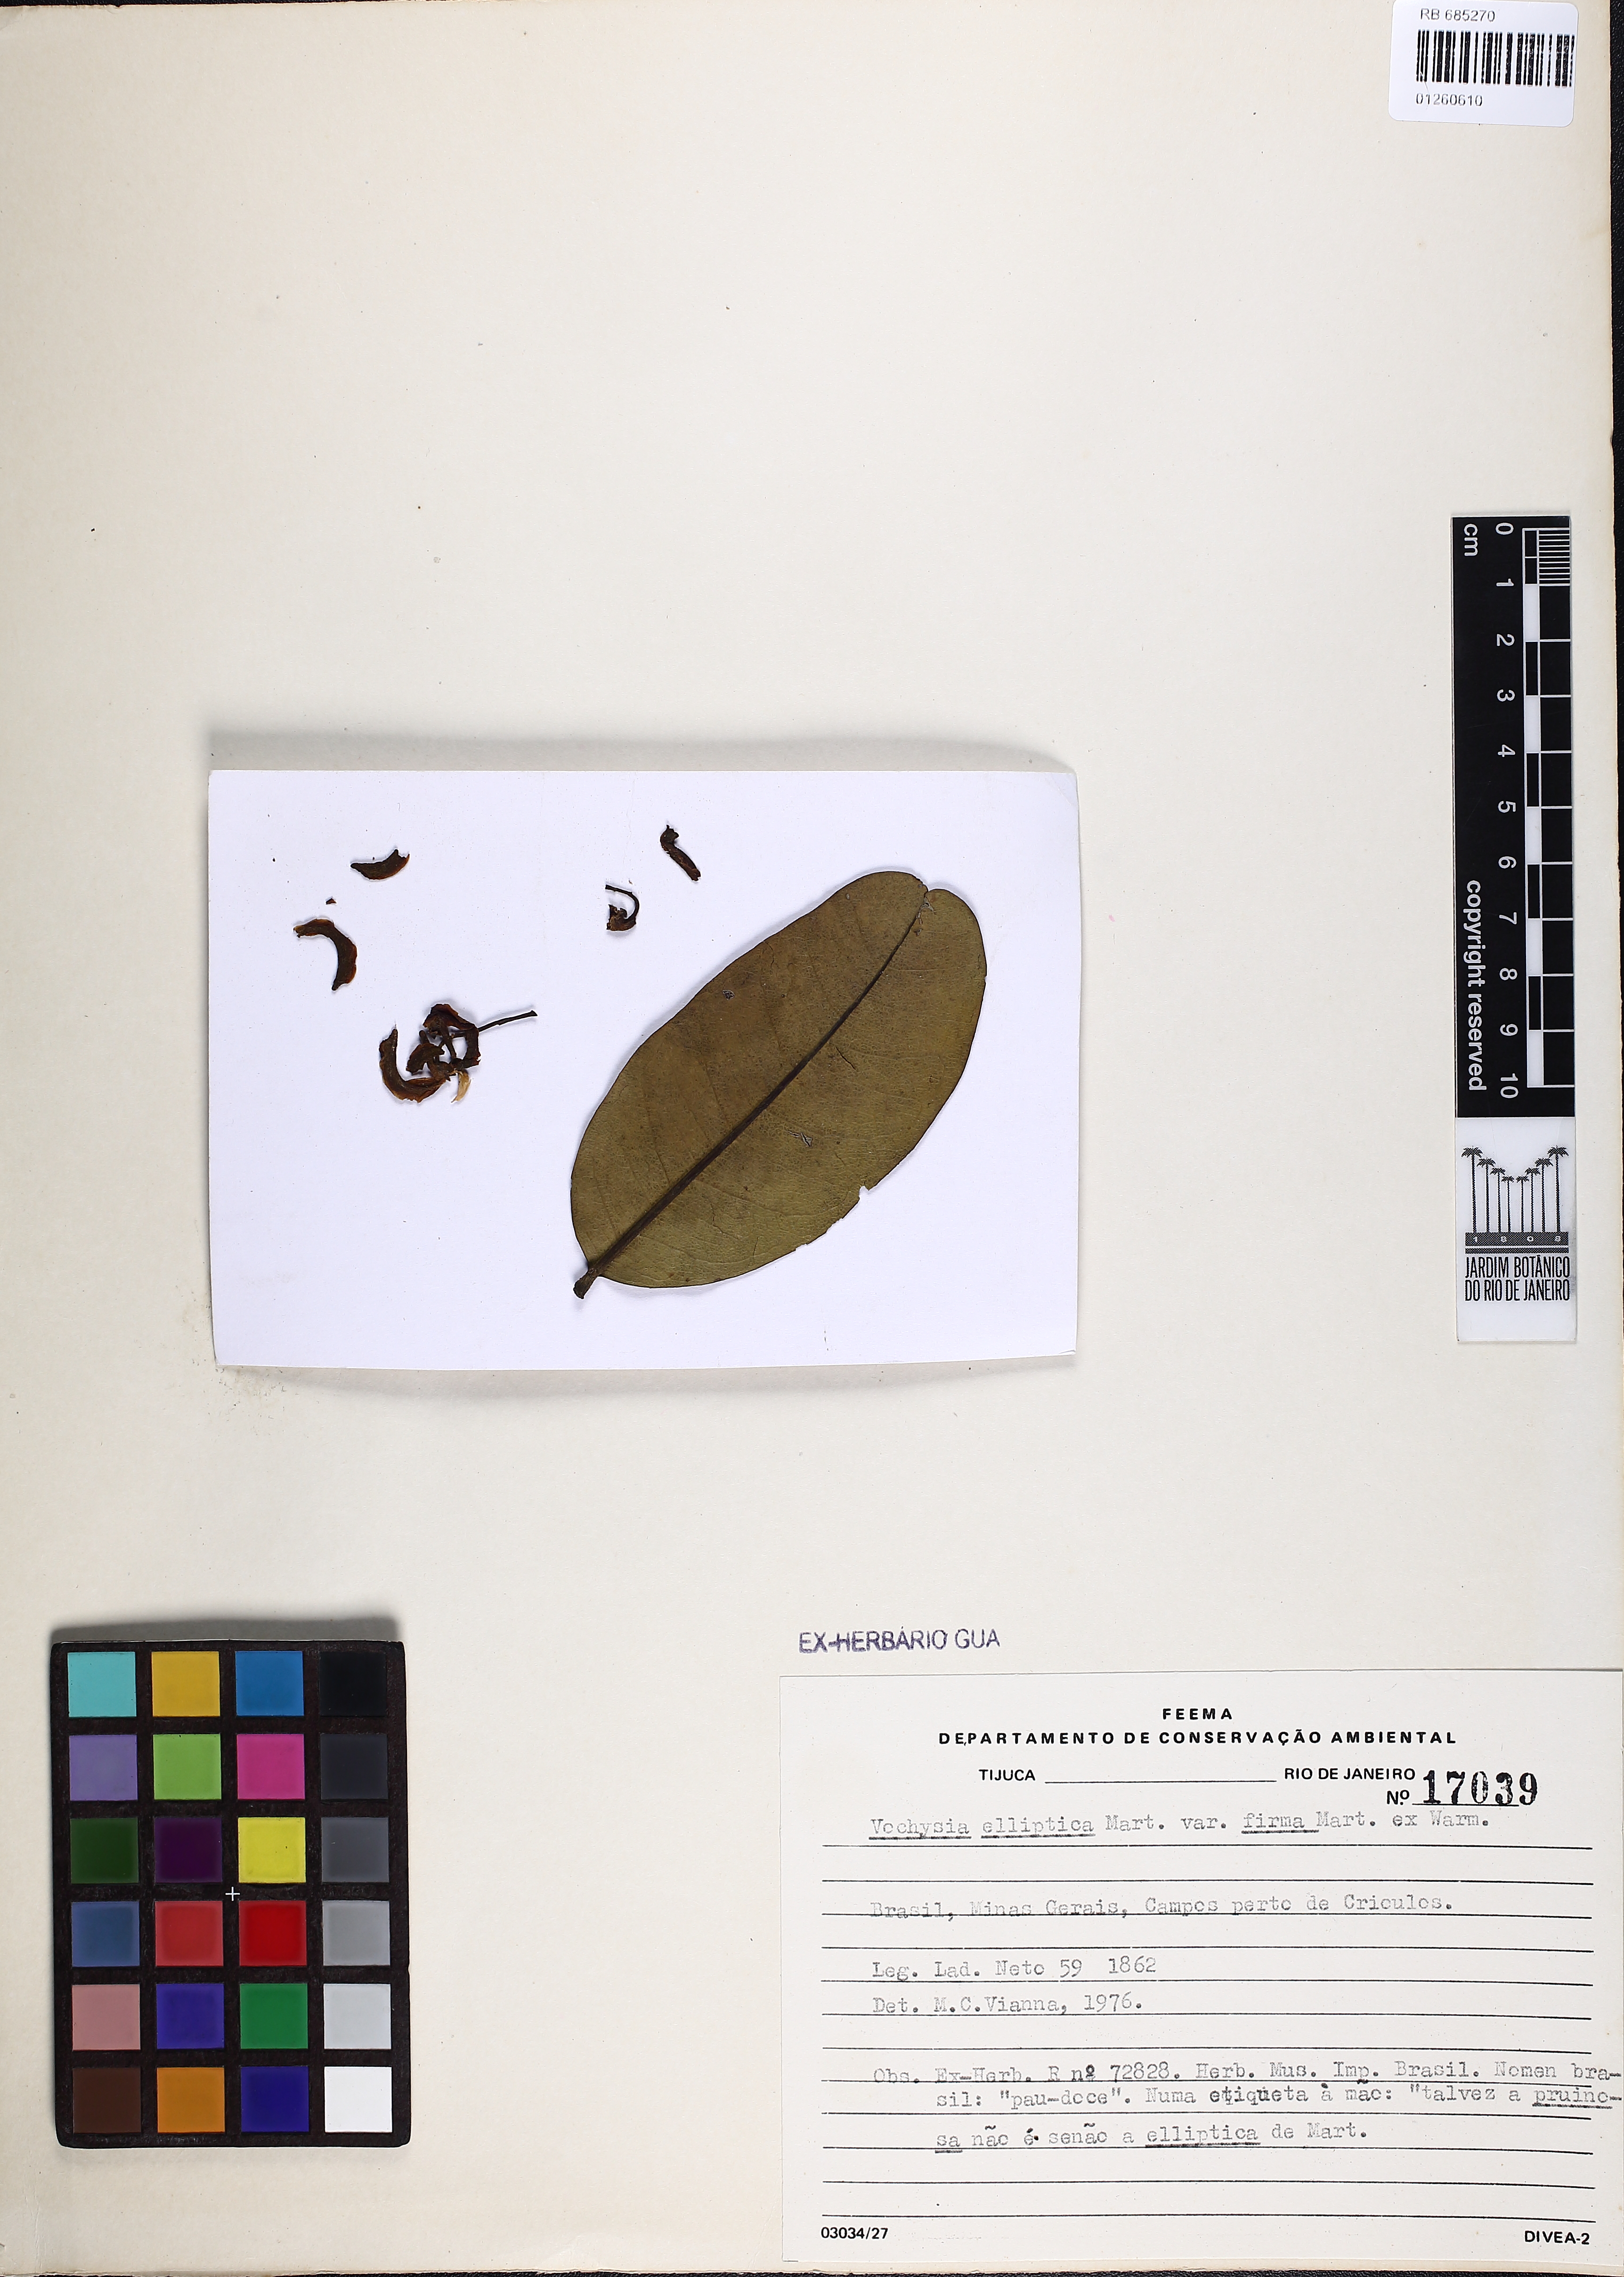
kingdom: Plantae
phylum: Tracheophyta
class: Magnoliopsida
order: Myrtales
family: Vochysiaceae
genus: Vochysia
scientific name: Vochysia elliptica
